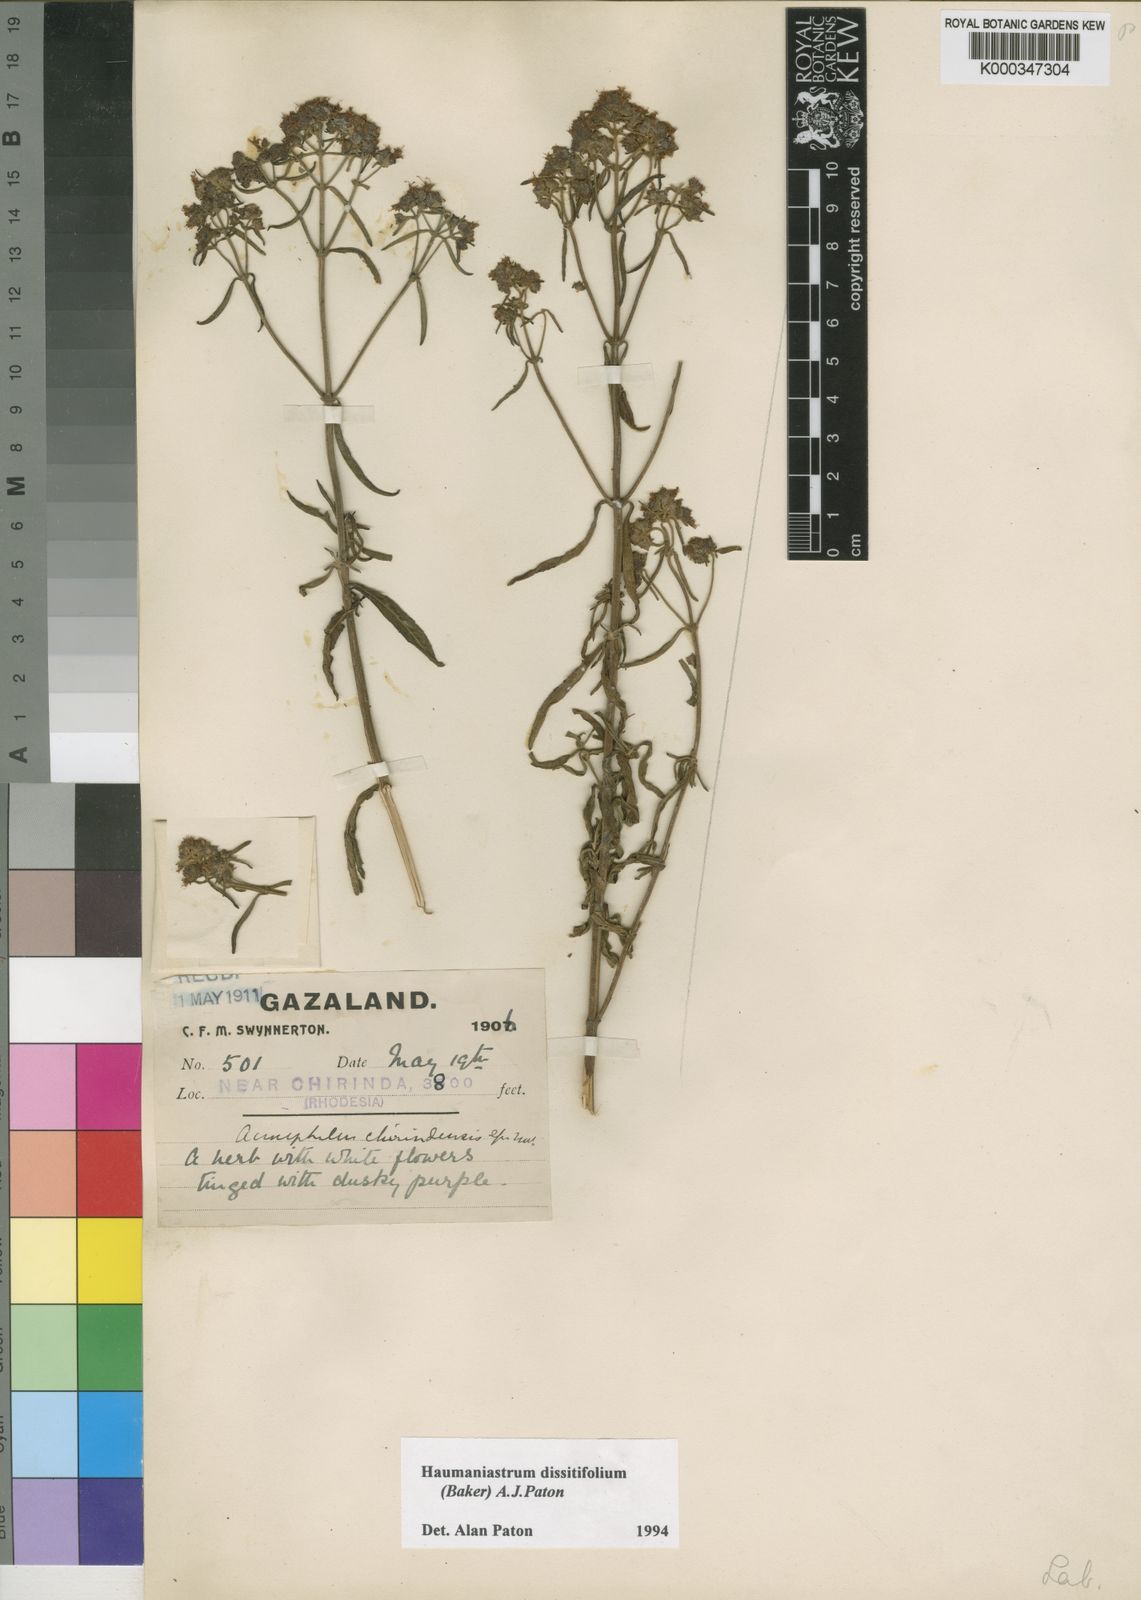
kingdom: Plantae
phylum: Tracheophyta
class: Magnoliopsida
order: Lamiales
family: Lamiaceae
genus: Haumaniastrum
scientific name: Haumaniastrum dissitifolium
